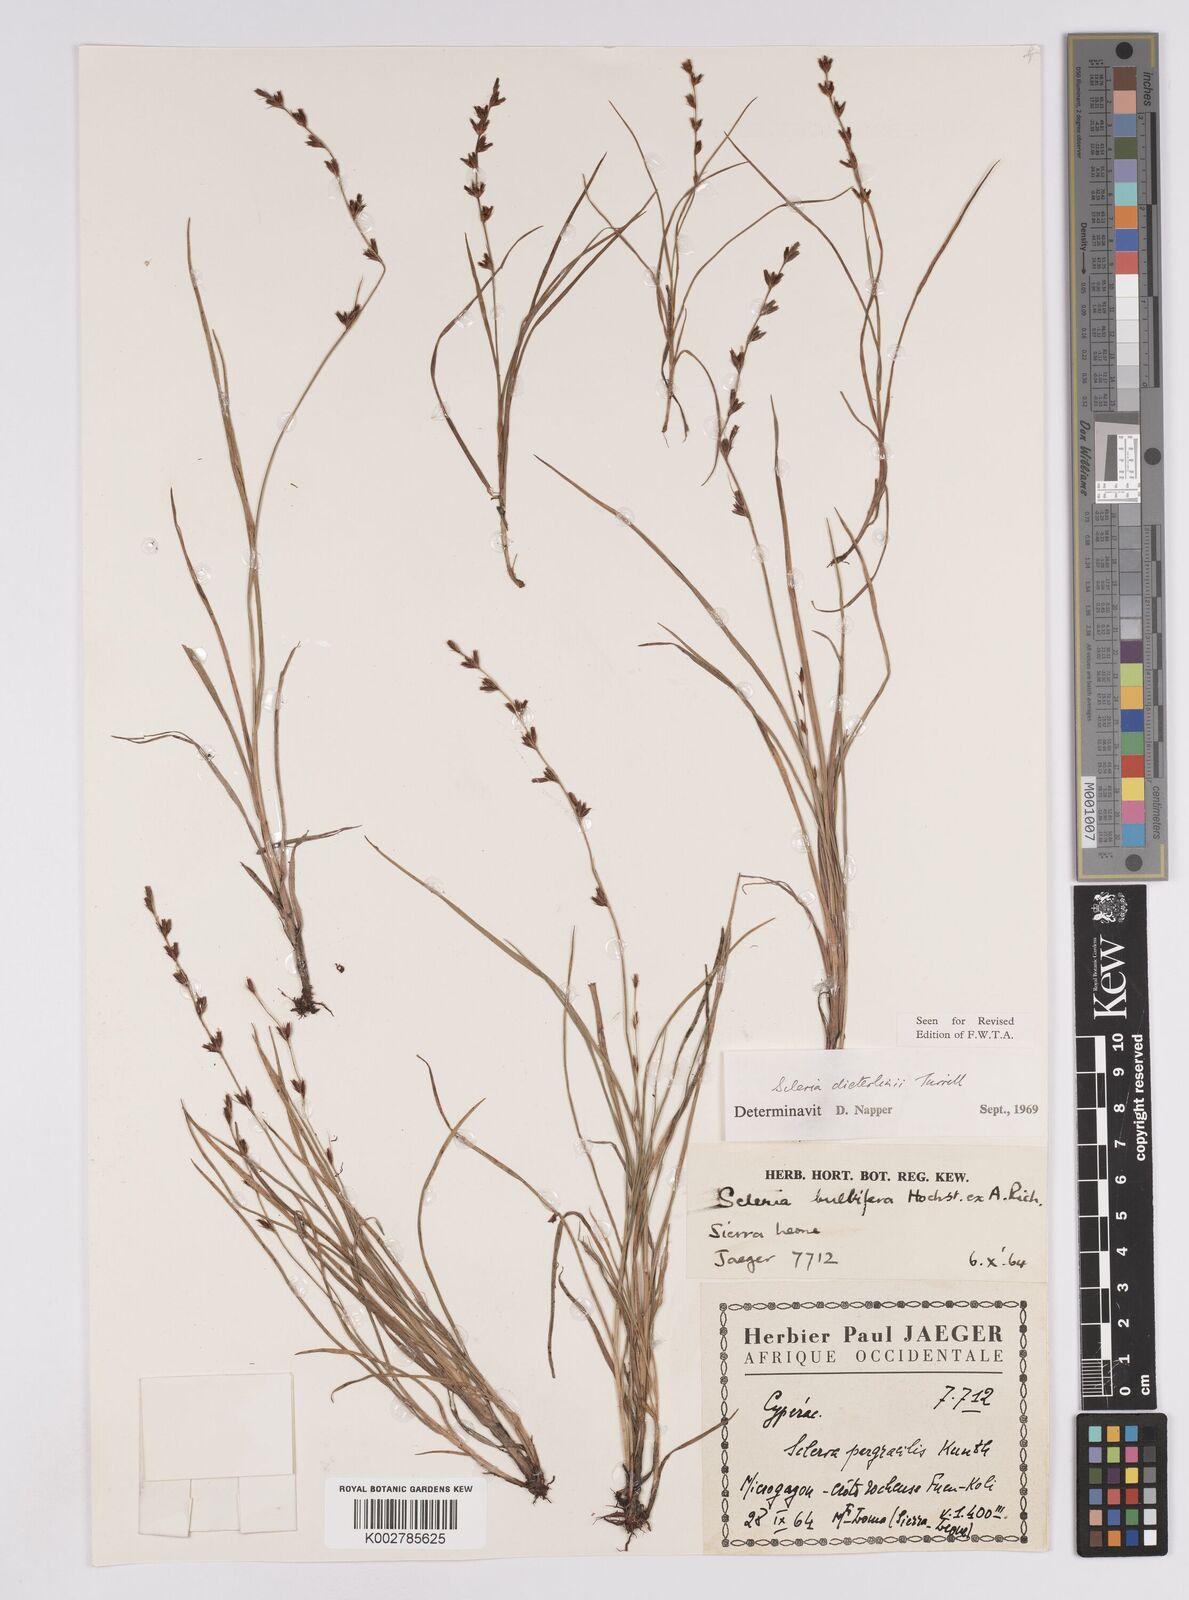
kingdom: Plantae
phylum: Tracheophyta
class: Liliopsida
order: Poales
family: Cyperaceae
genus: Scleria
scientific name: Scleria flexuosa
